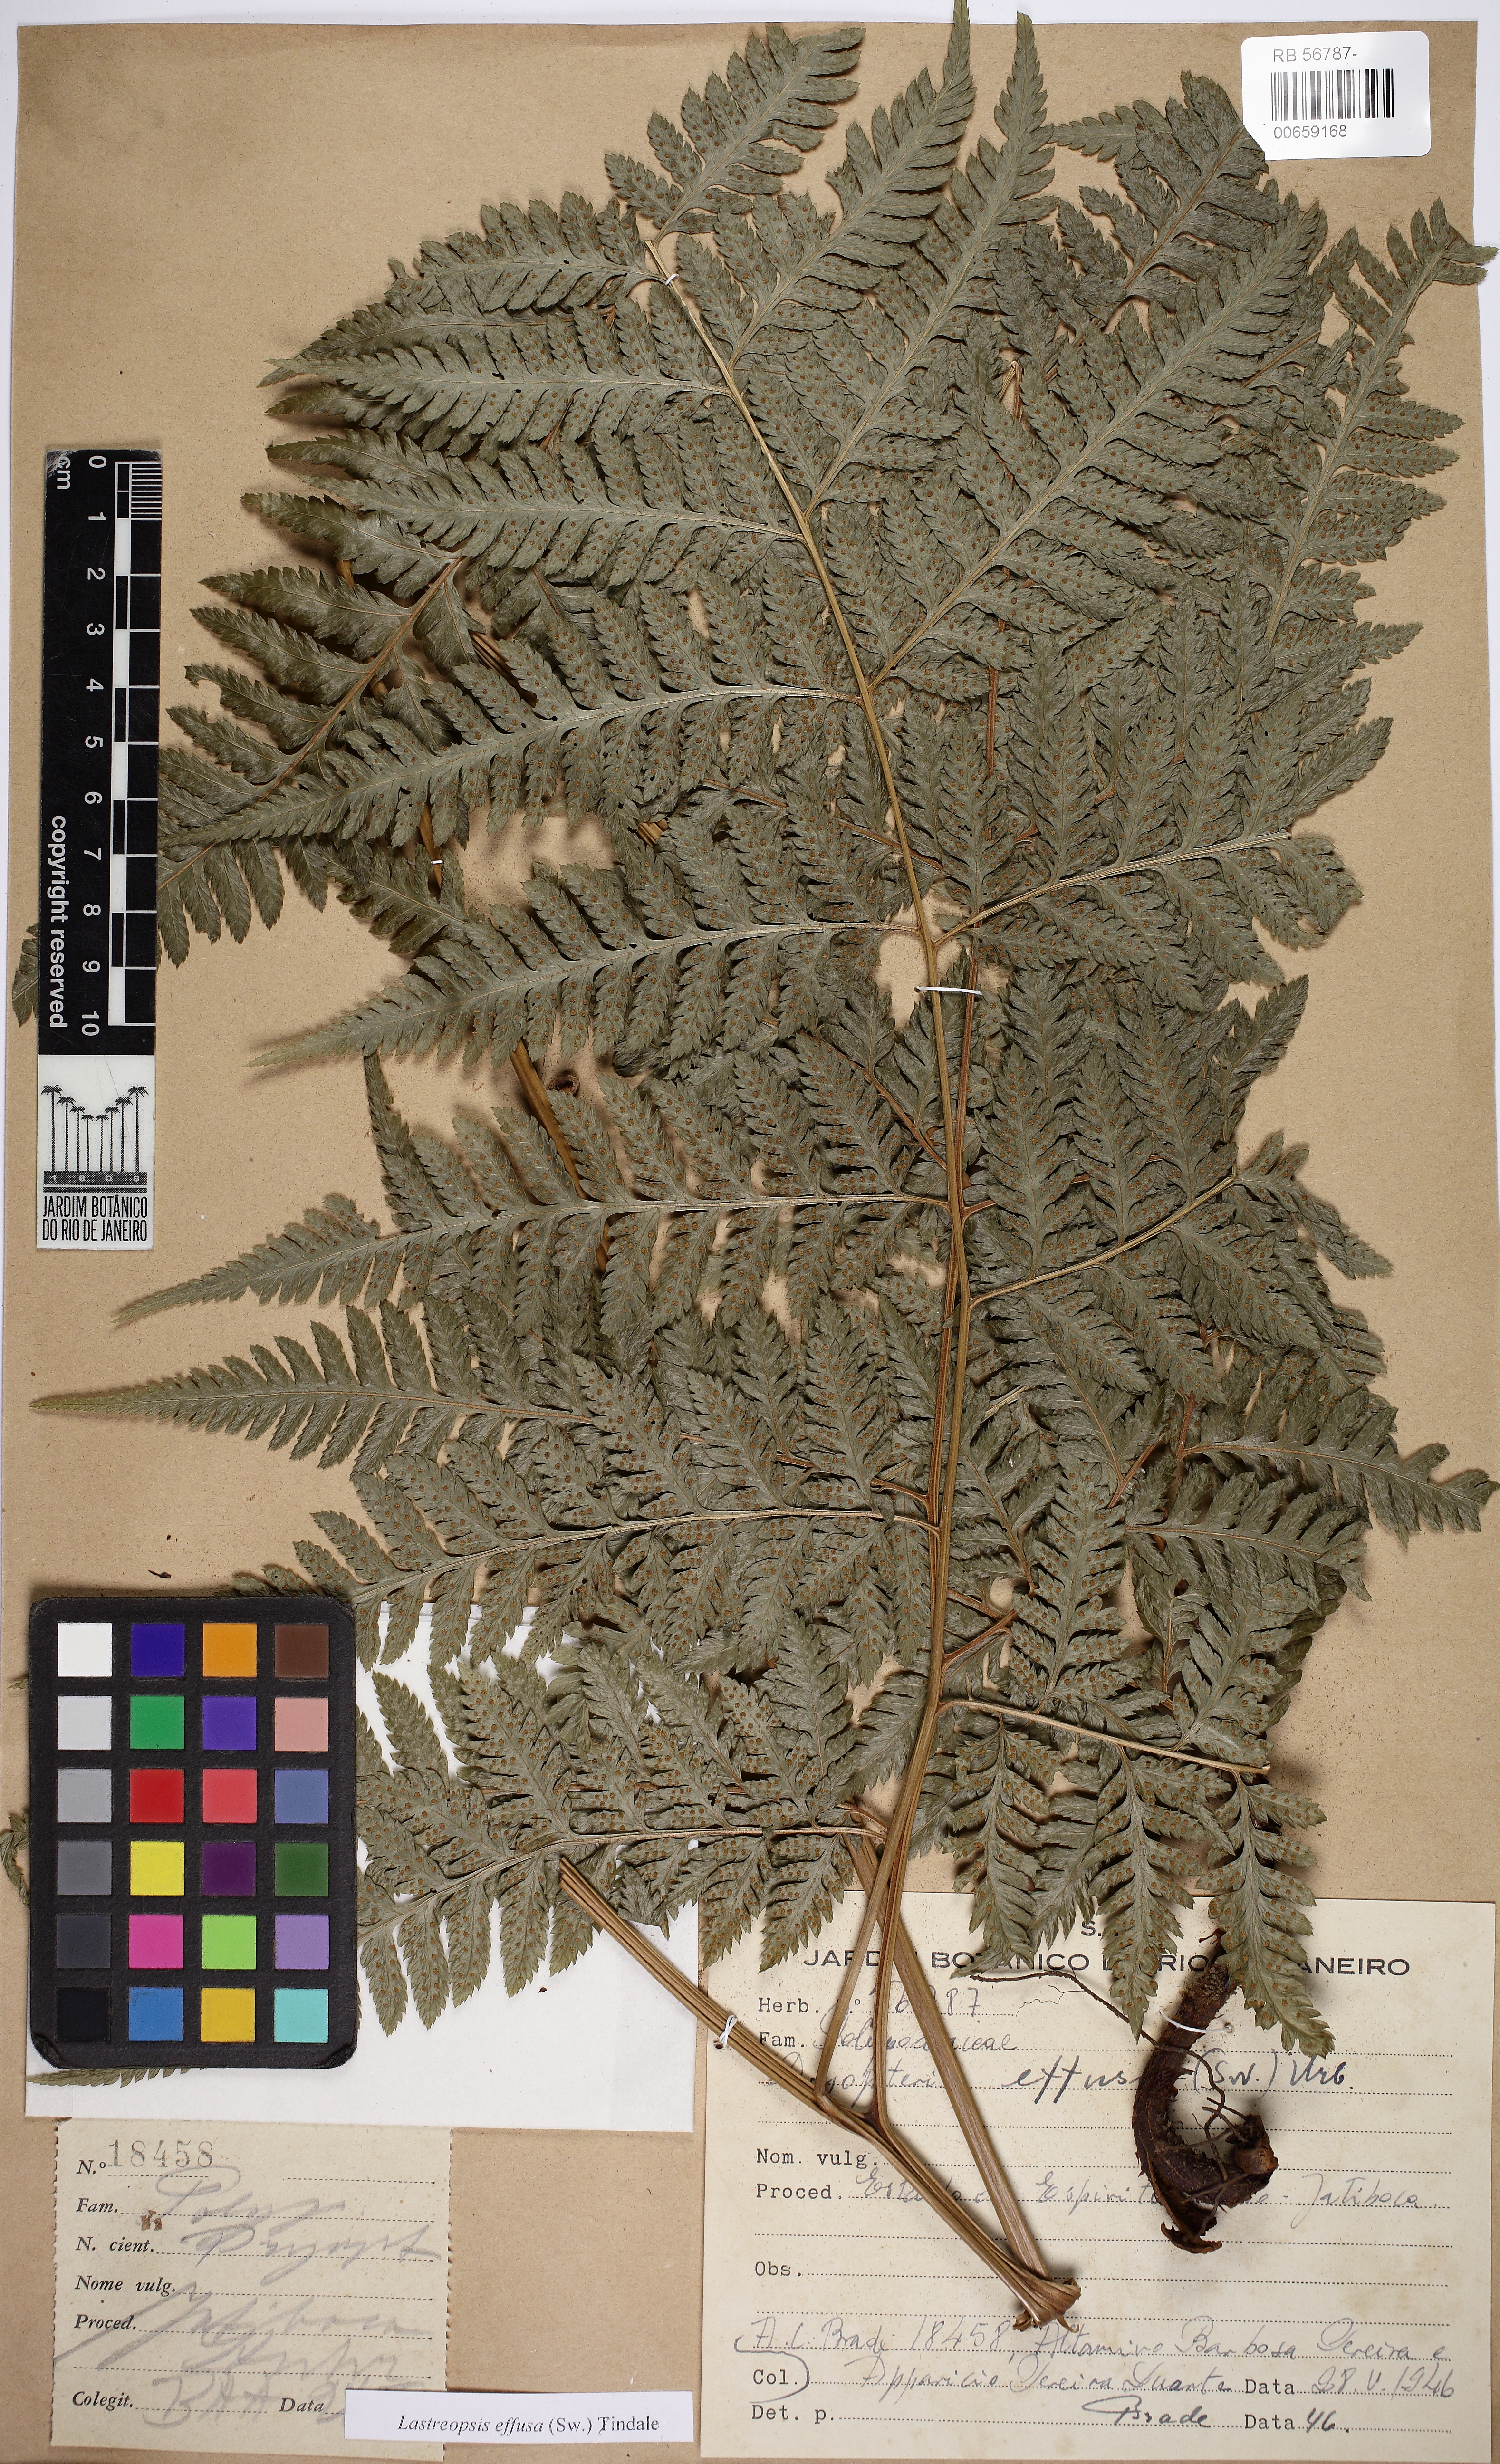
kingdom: Plantae
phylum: Tracheophyta
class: Polypodiopsida
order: Polypodiales
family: Dryopteridaceae
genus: Parapolystichum
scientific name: Parapolystichum effusum
